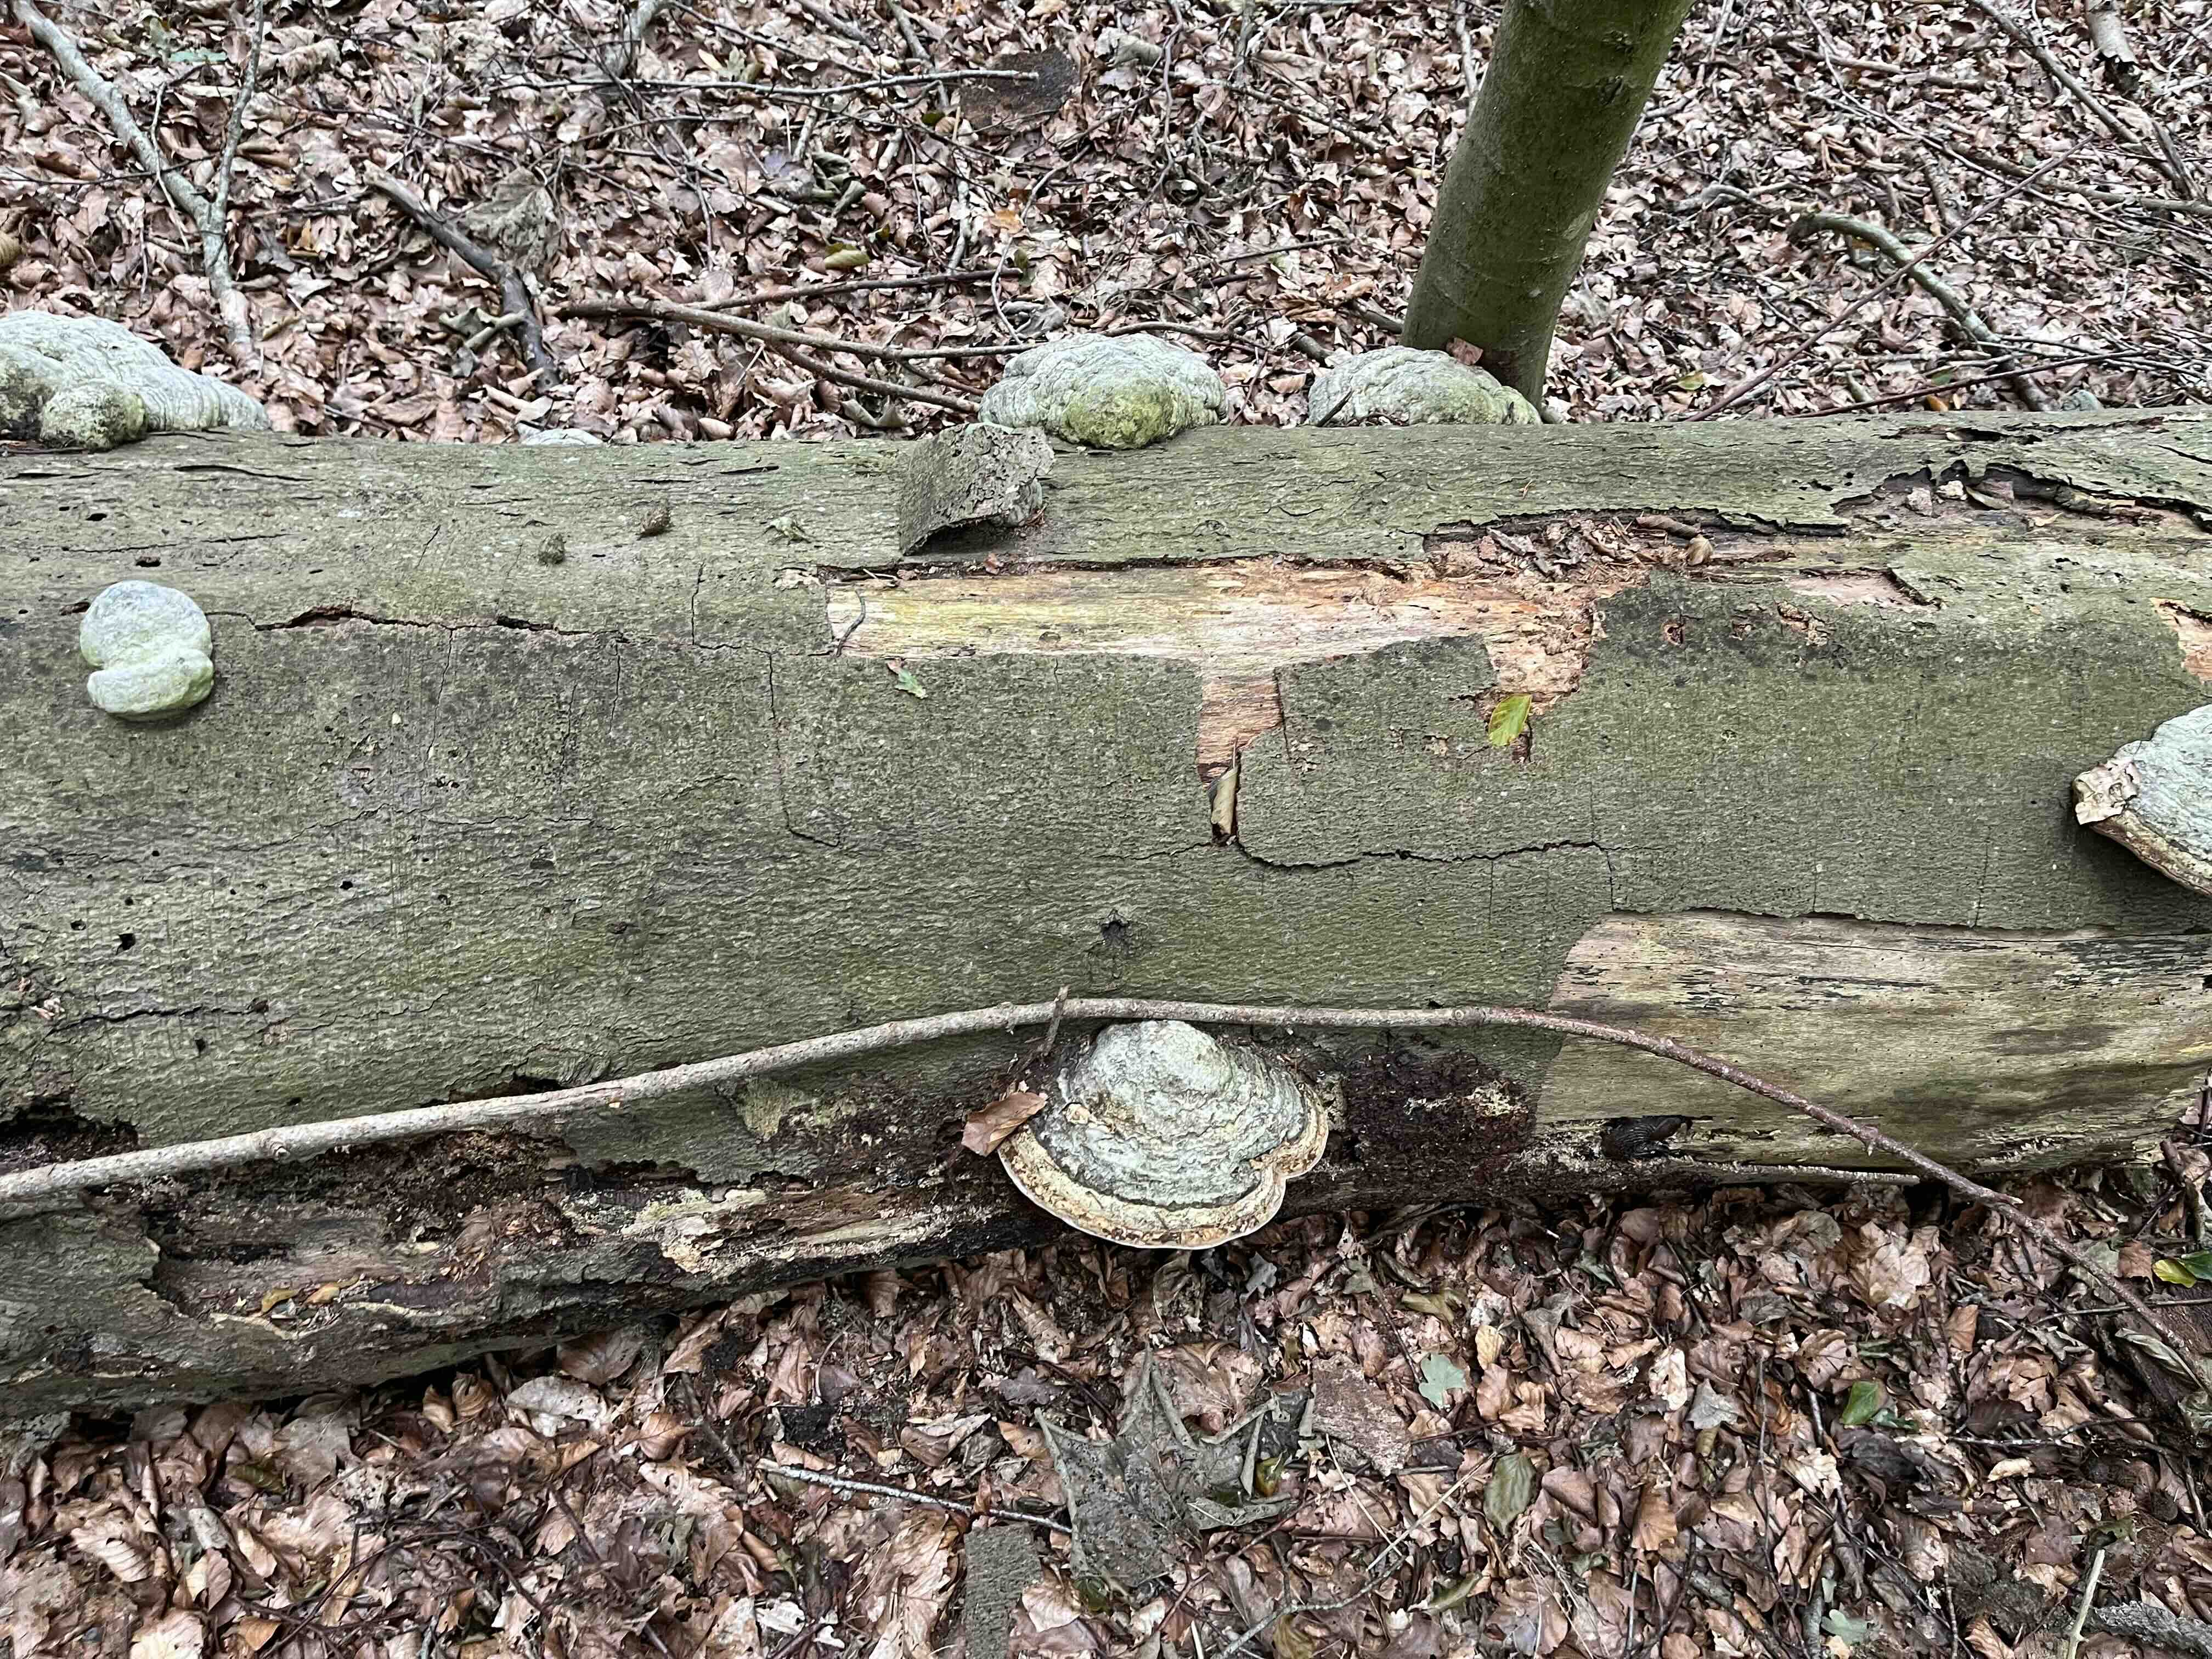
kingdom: Fungi
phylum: Basidiomycota
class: Agaricomycetes
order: Polyporales
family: Polyporaceae
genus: Fomes
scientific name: Fomes fomentarius
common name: tøndersvamp
